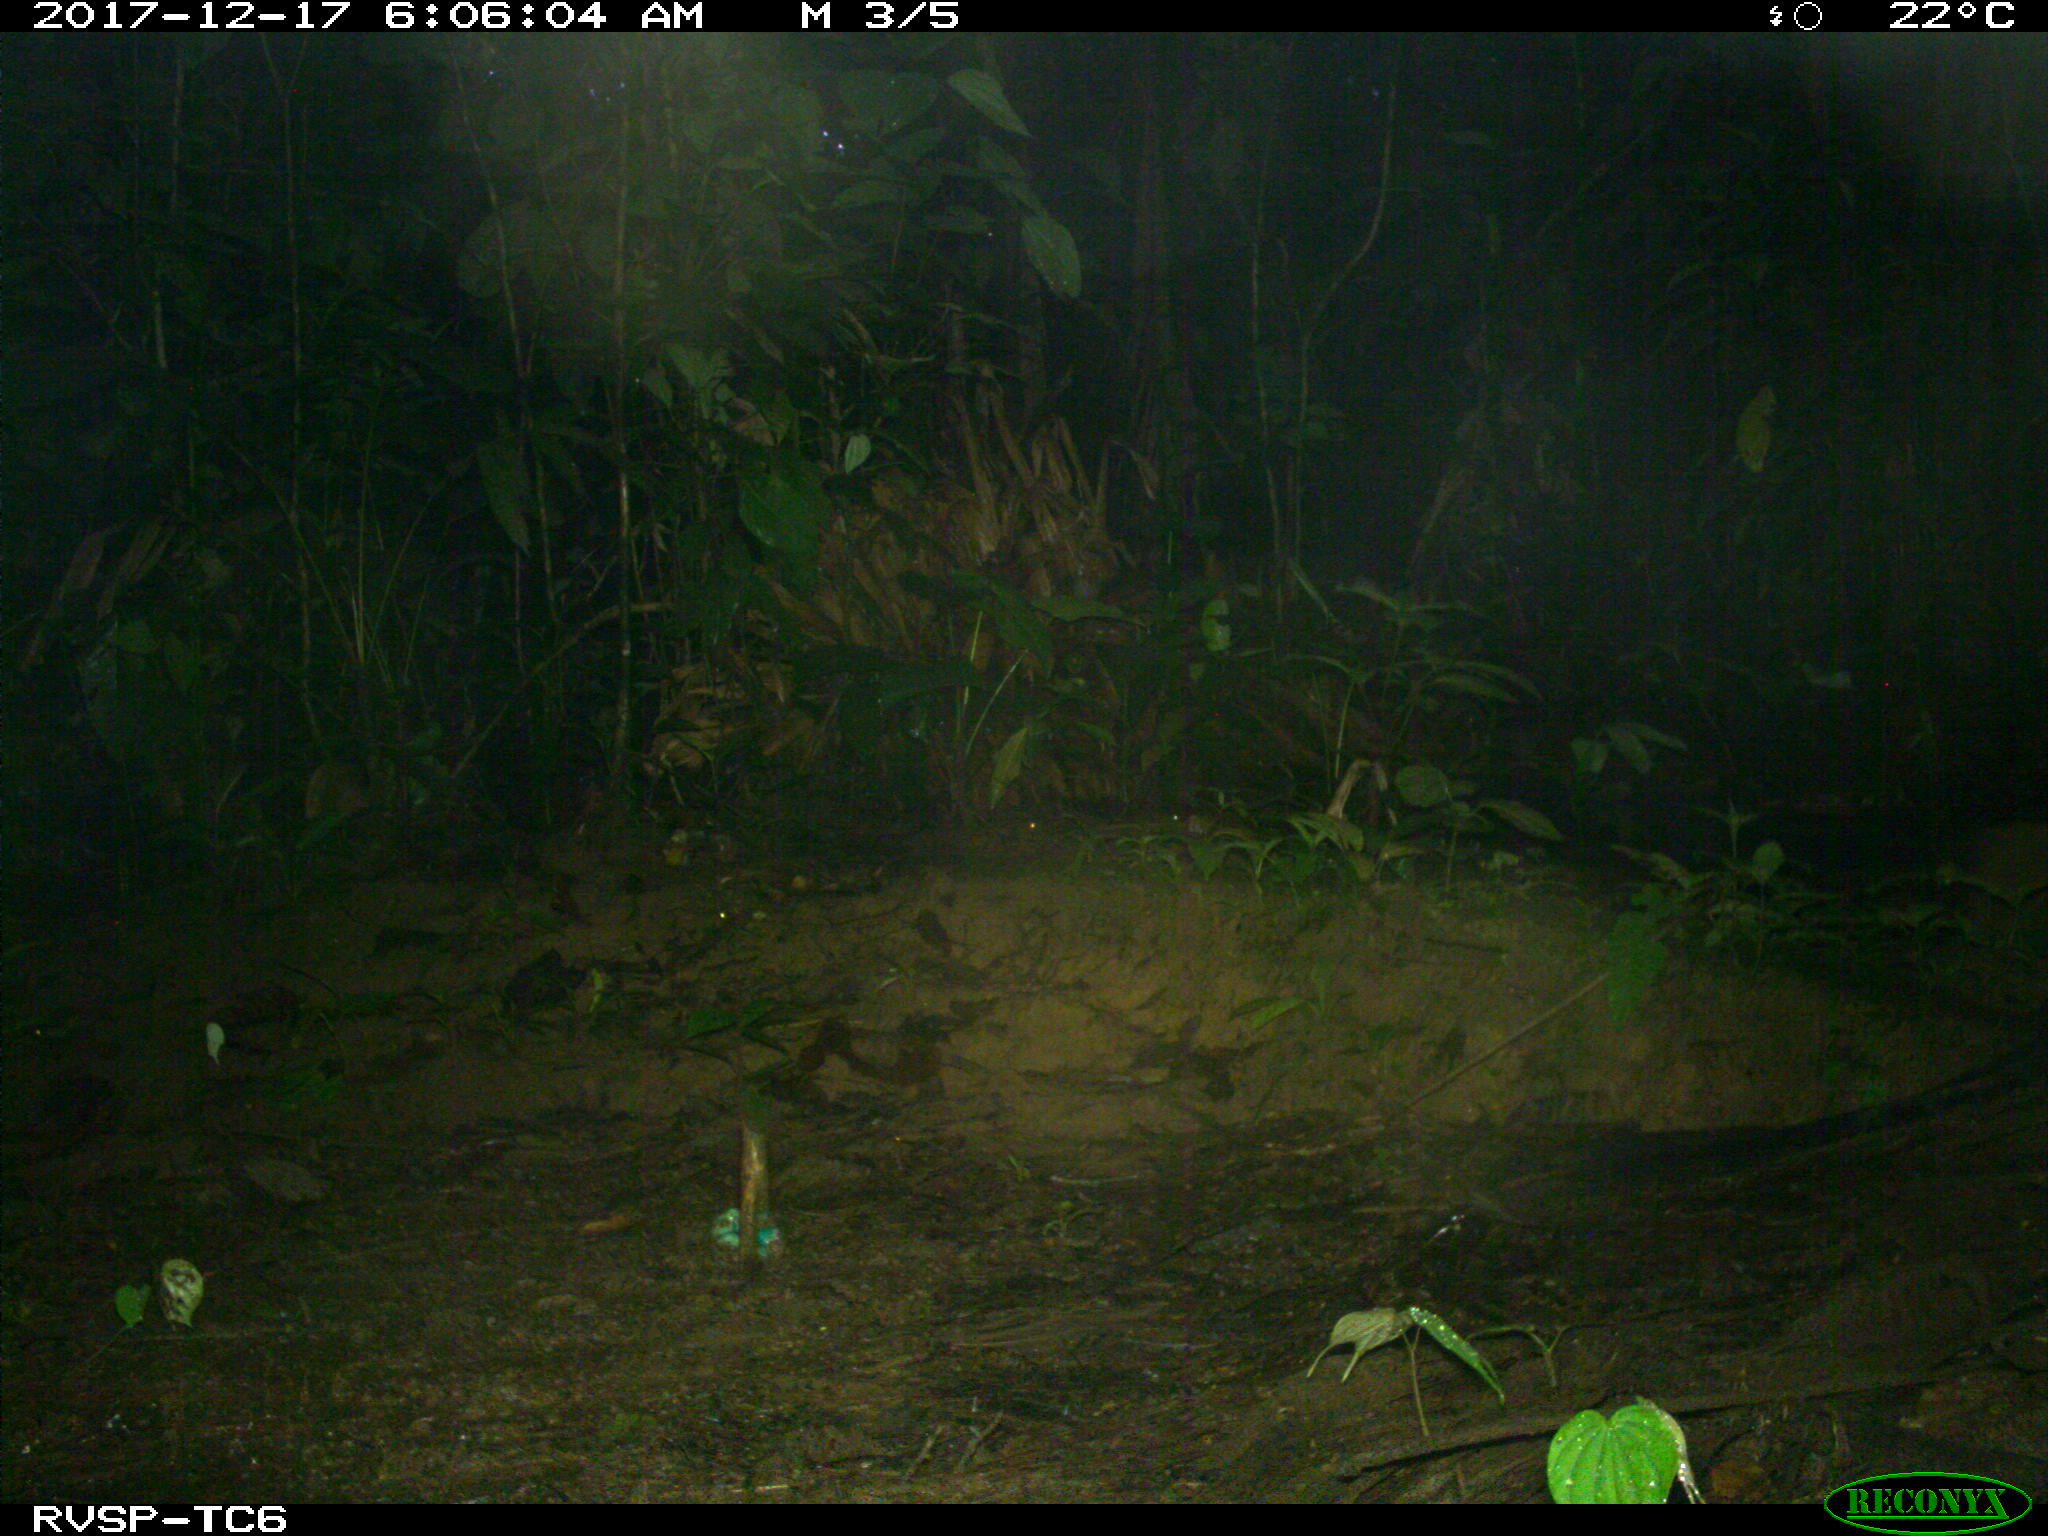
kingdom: Animalia
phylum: Chordata
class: Mammalia
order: Rodentia
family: Dasyproctidae
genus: Dasyprocta
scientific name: Dasyprocta punctata
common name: Central american agouti
